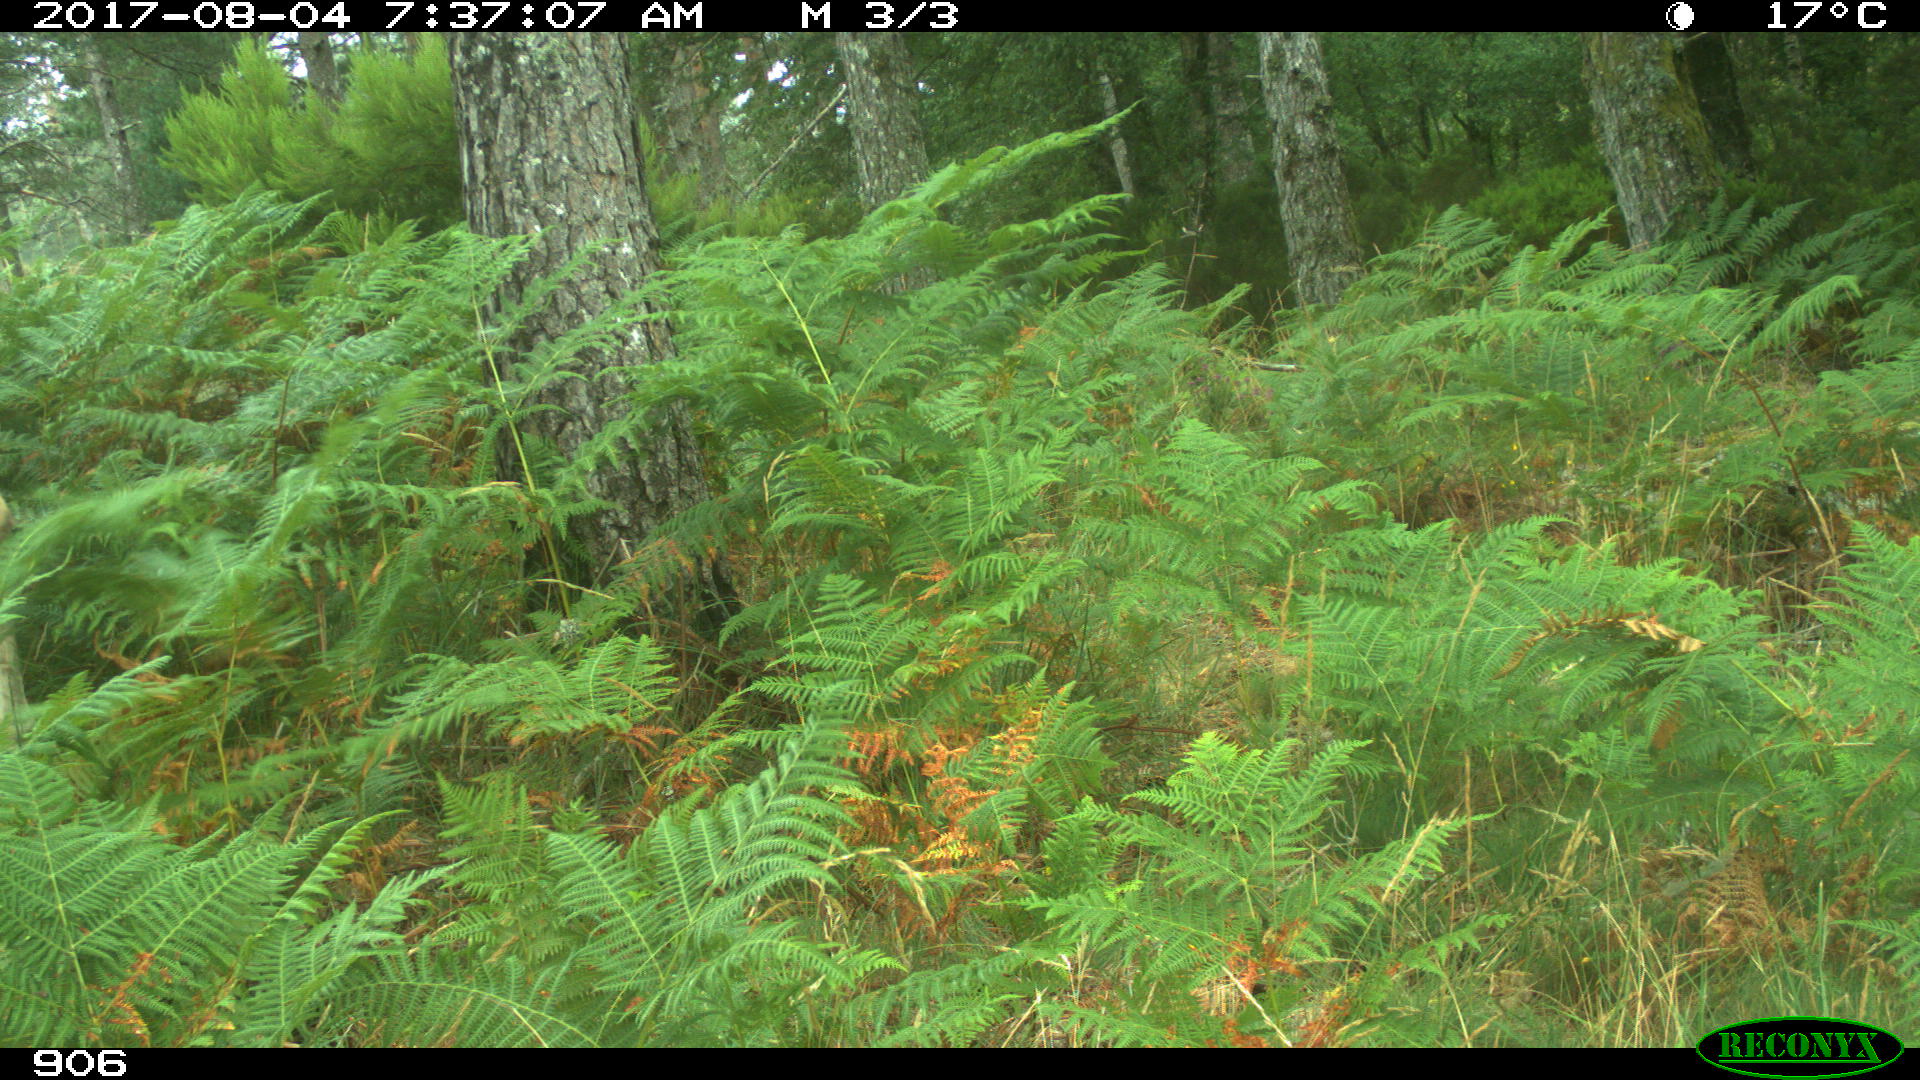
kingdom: Animalia
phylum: Chordata
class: Mammalia
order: Artiodactyla
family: Bovidae
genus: Bos
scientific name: Bos taurus
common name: Domesticated cattle
